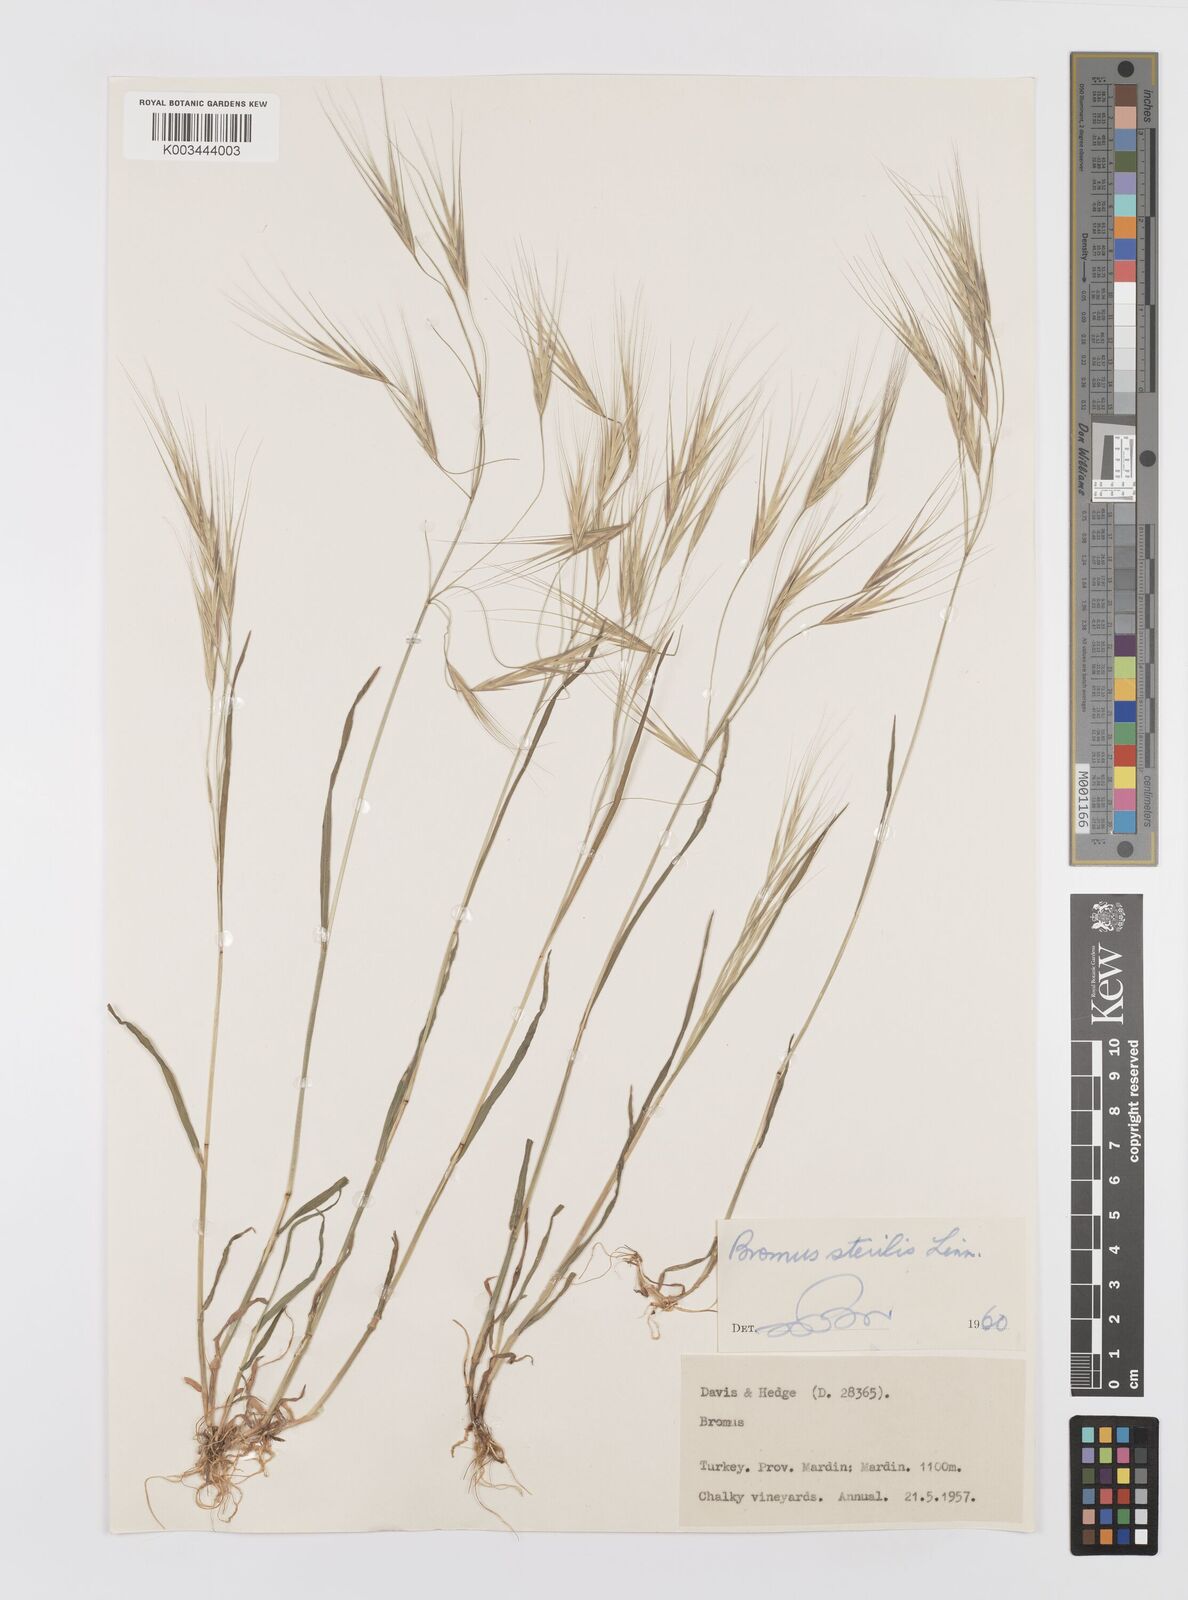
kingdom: Plantae
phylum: Tracheophyta
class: Liliopsida
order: Poales
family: Poaceae
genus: Bromus
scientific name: Bromus sterilis
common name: Poverty brome
